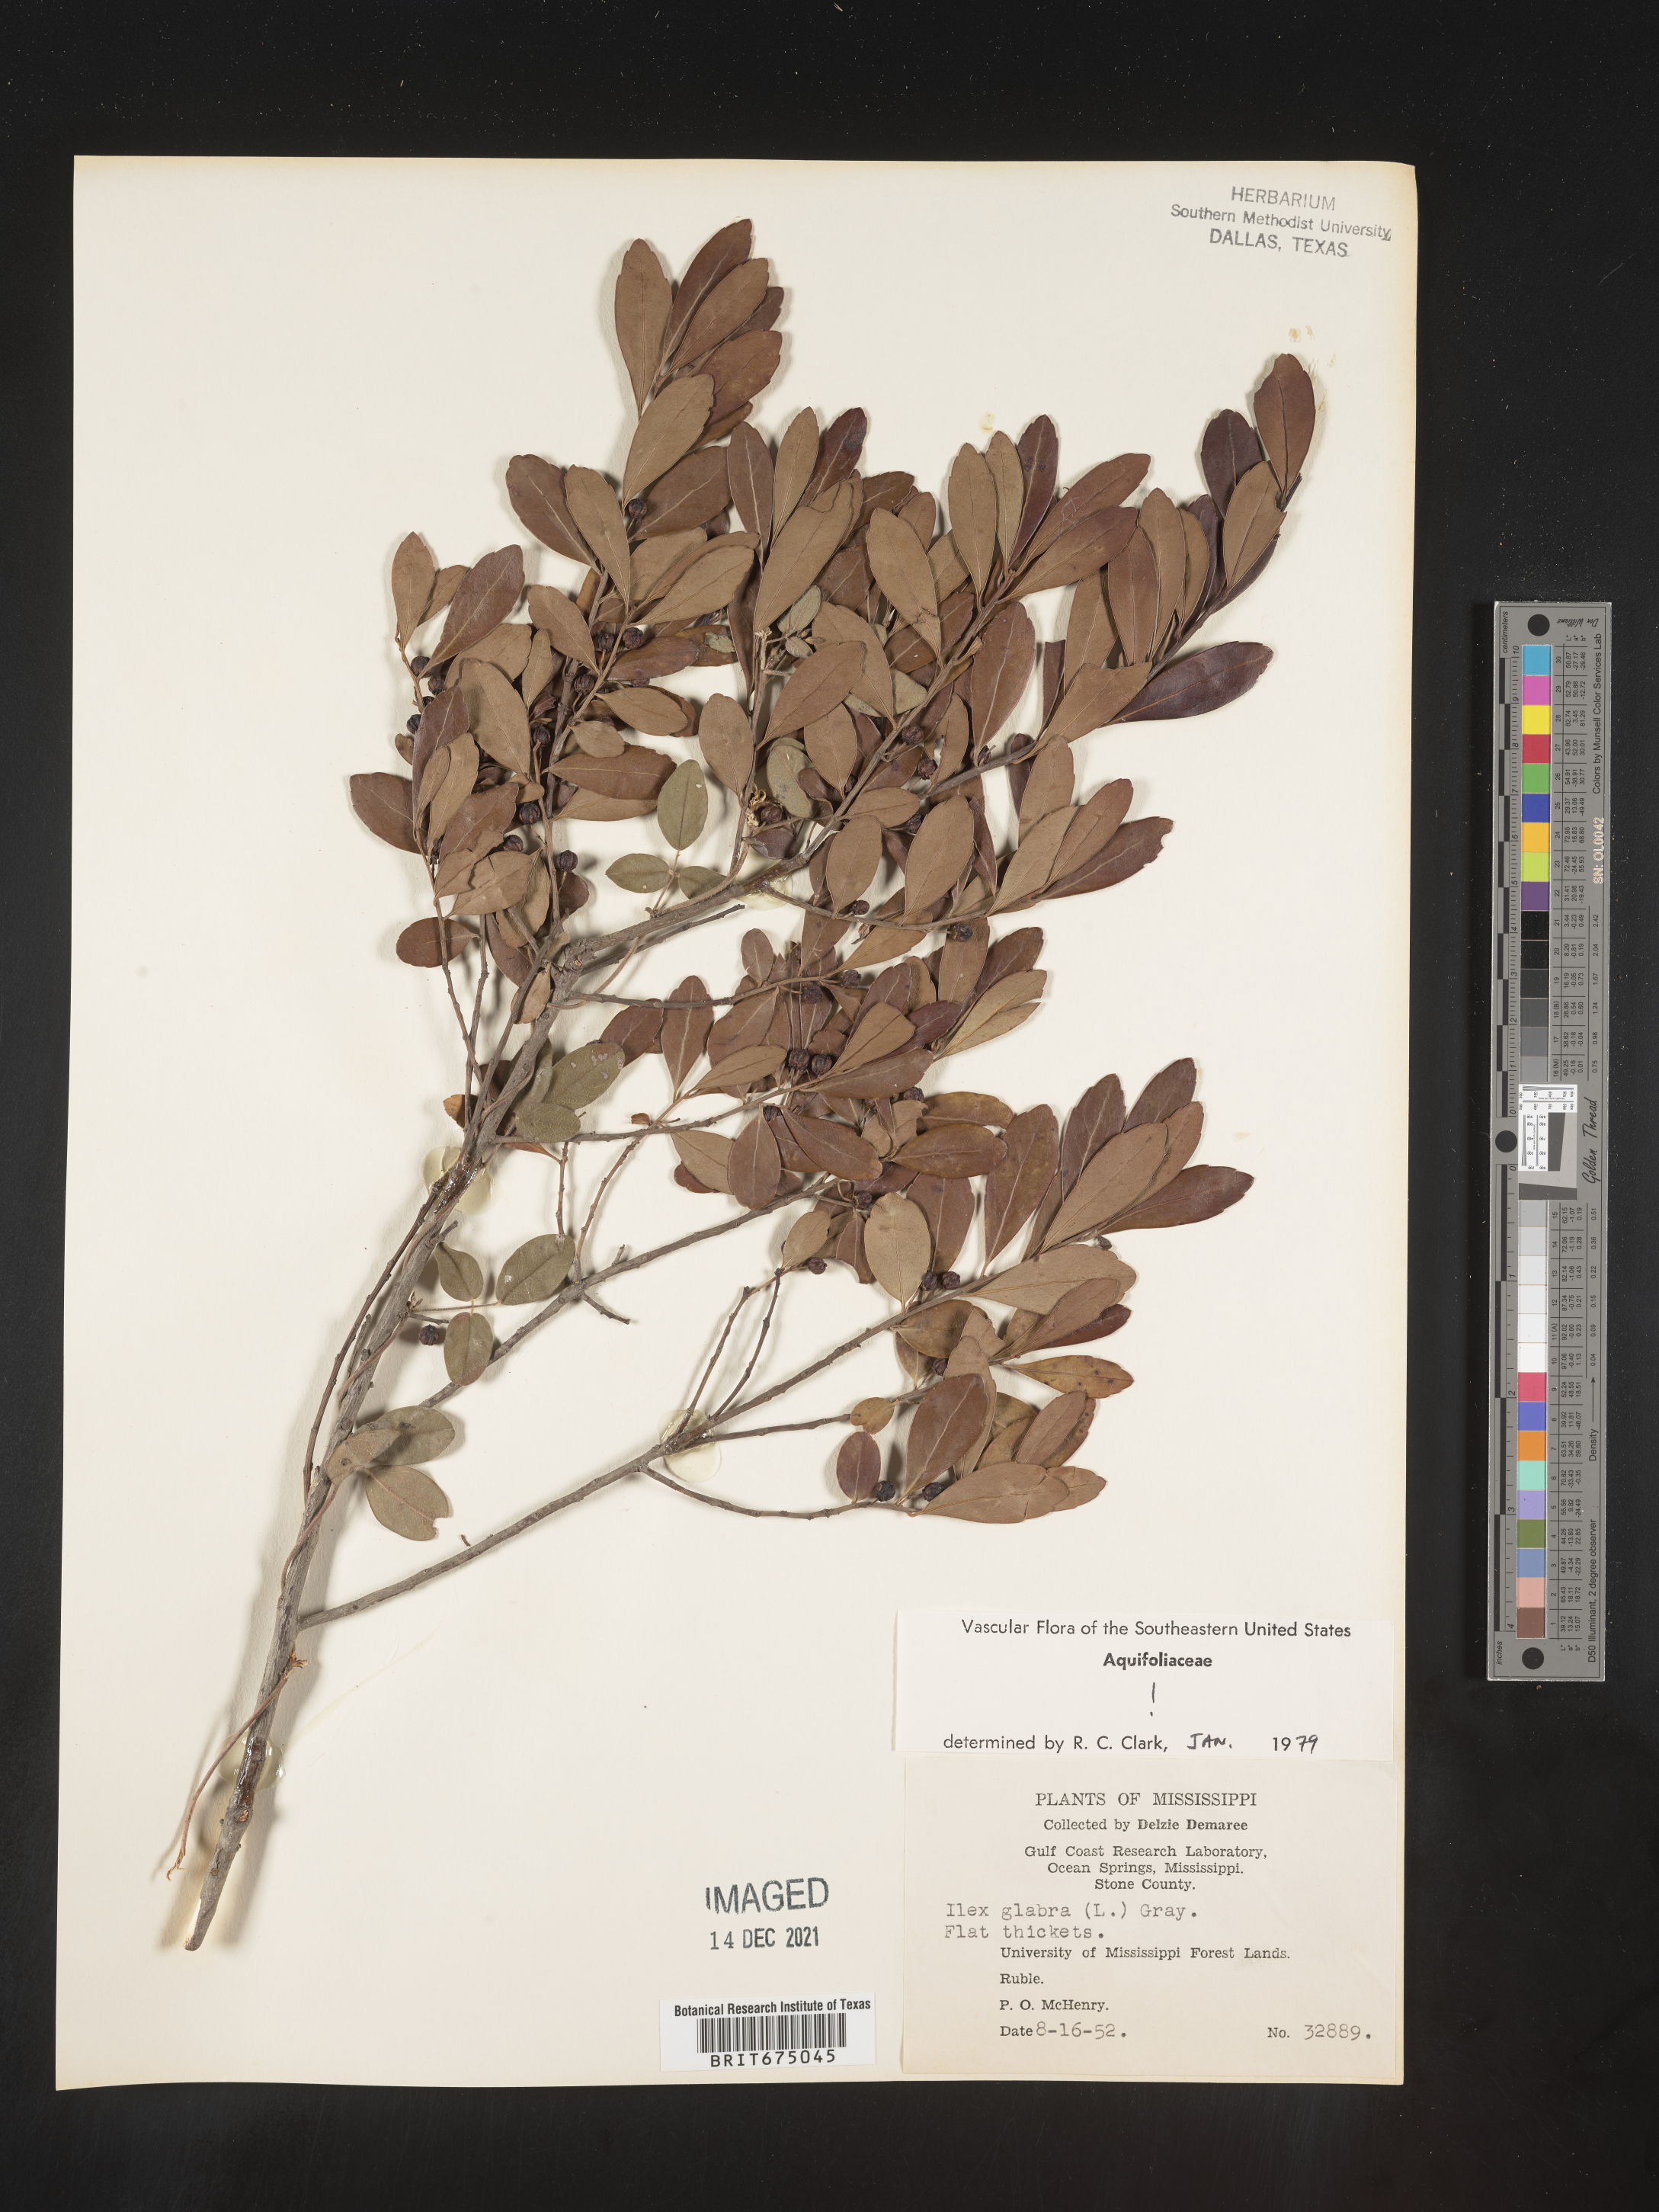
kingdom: Plantae
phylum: Tracheophyta
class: Magnoliopsida
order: Aquifoliales
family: Aquifoliaceae
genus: Ilex
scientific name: Ilex glabra
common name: Bitter gallberry
